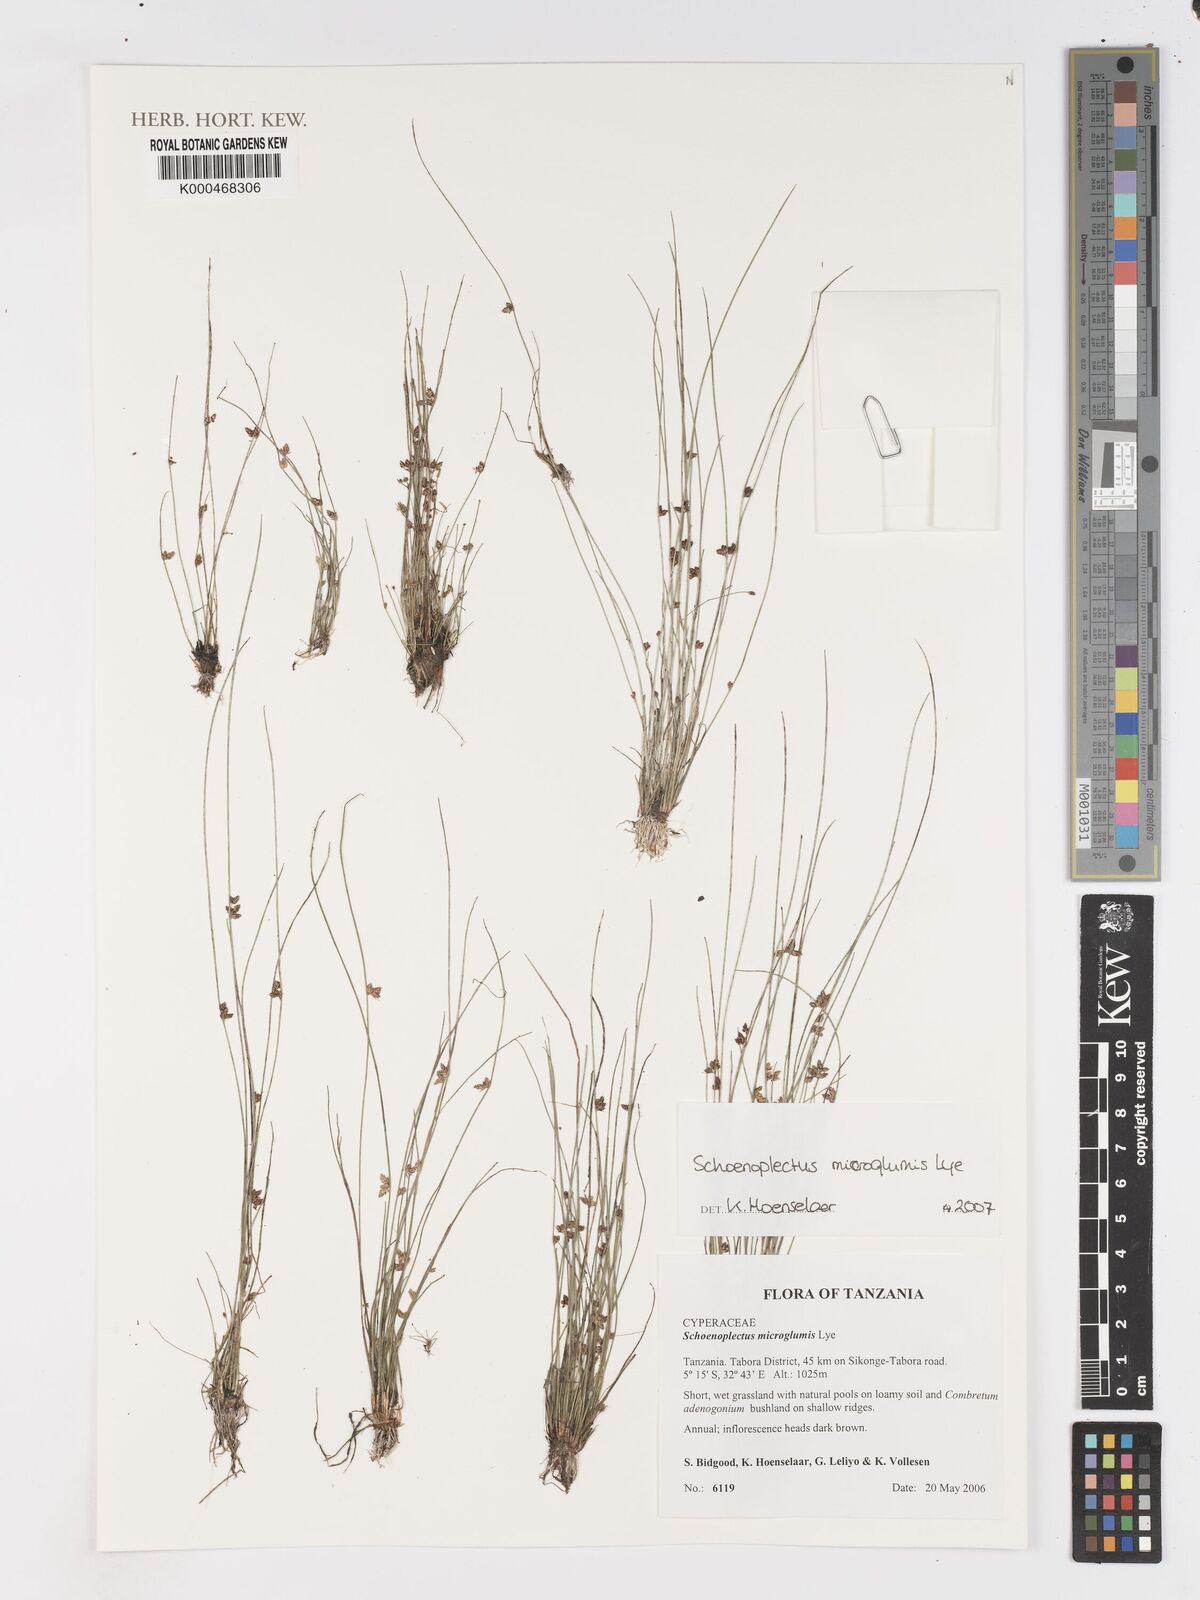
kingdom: Plantae
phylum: Tracheophyta
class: Liliopsida
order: Poales
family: Cyperaceae
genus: Schoenoplectiella
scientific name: Schoenoplectiella microglumis
